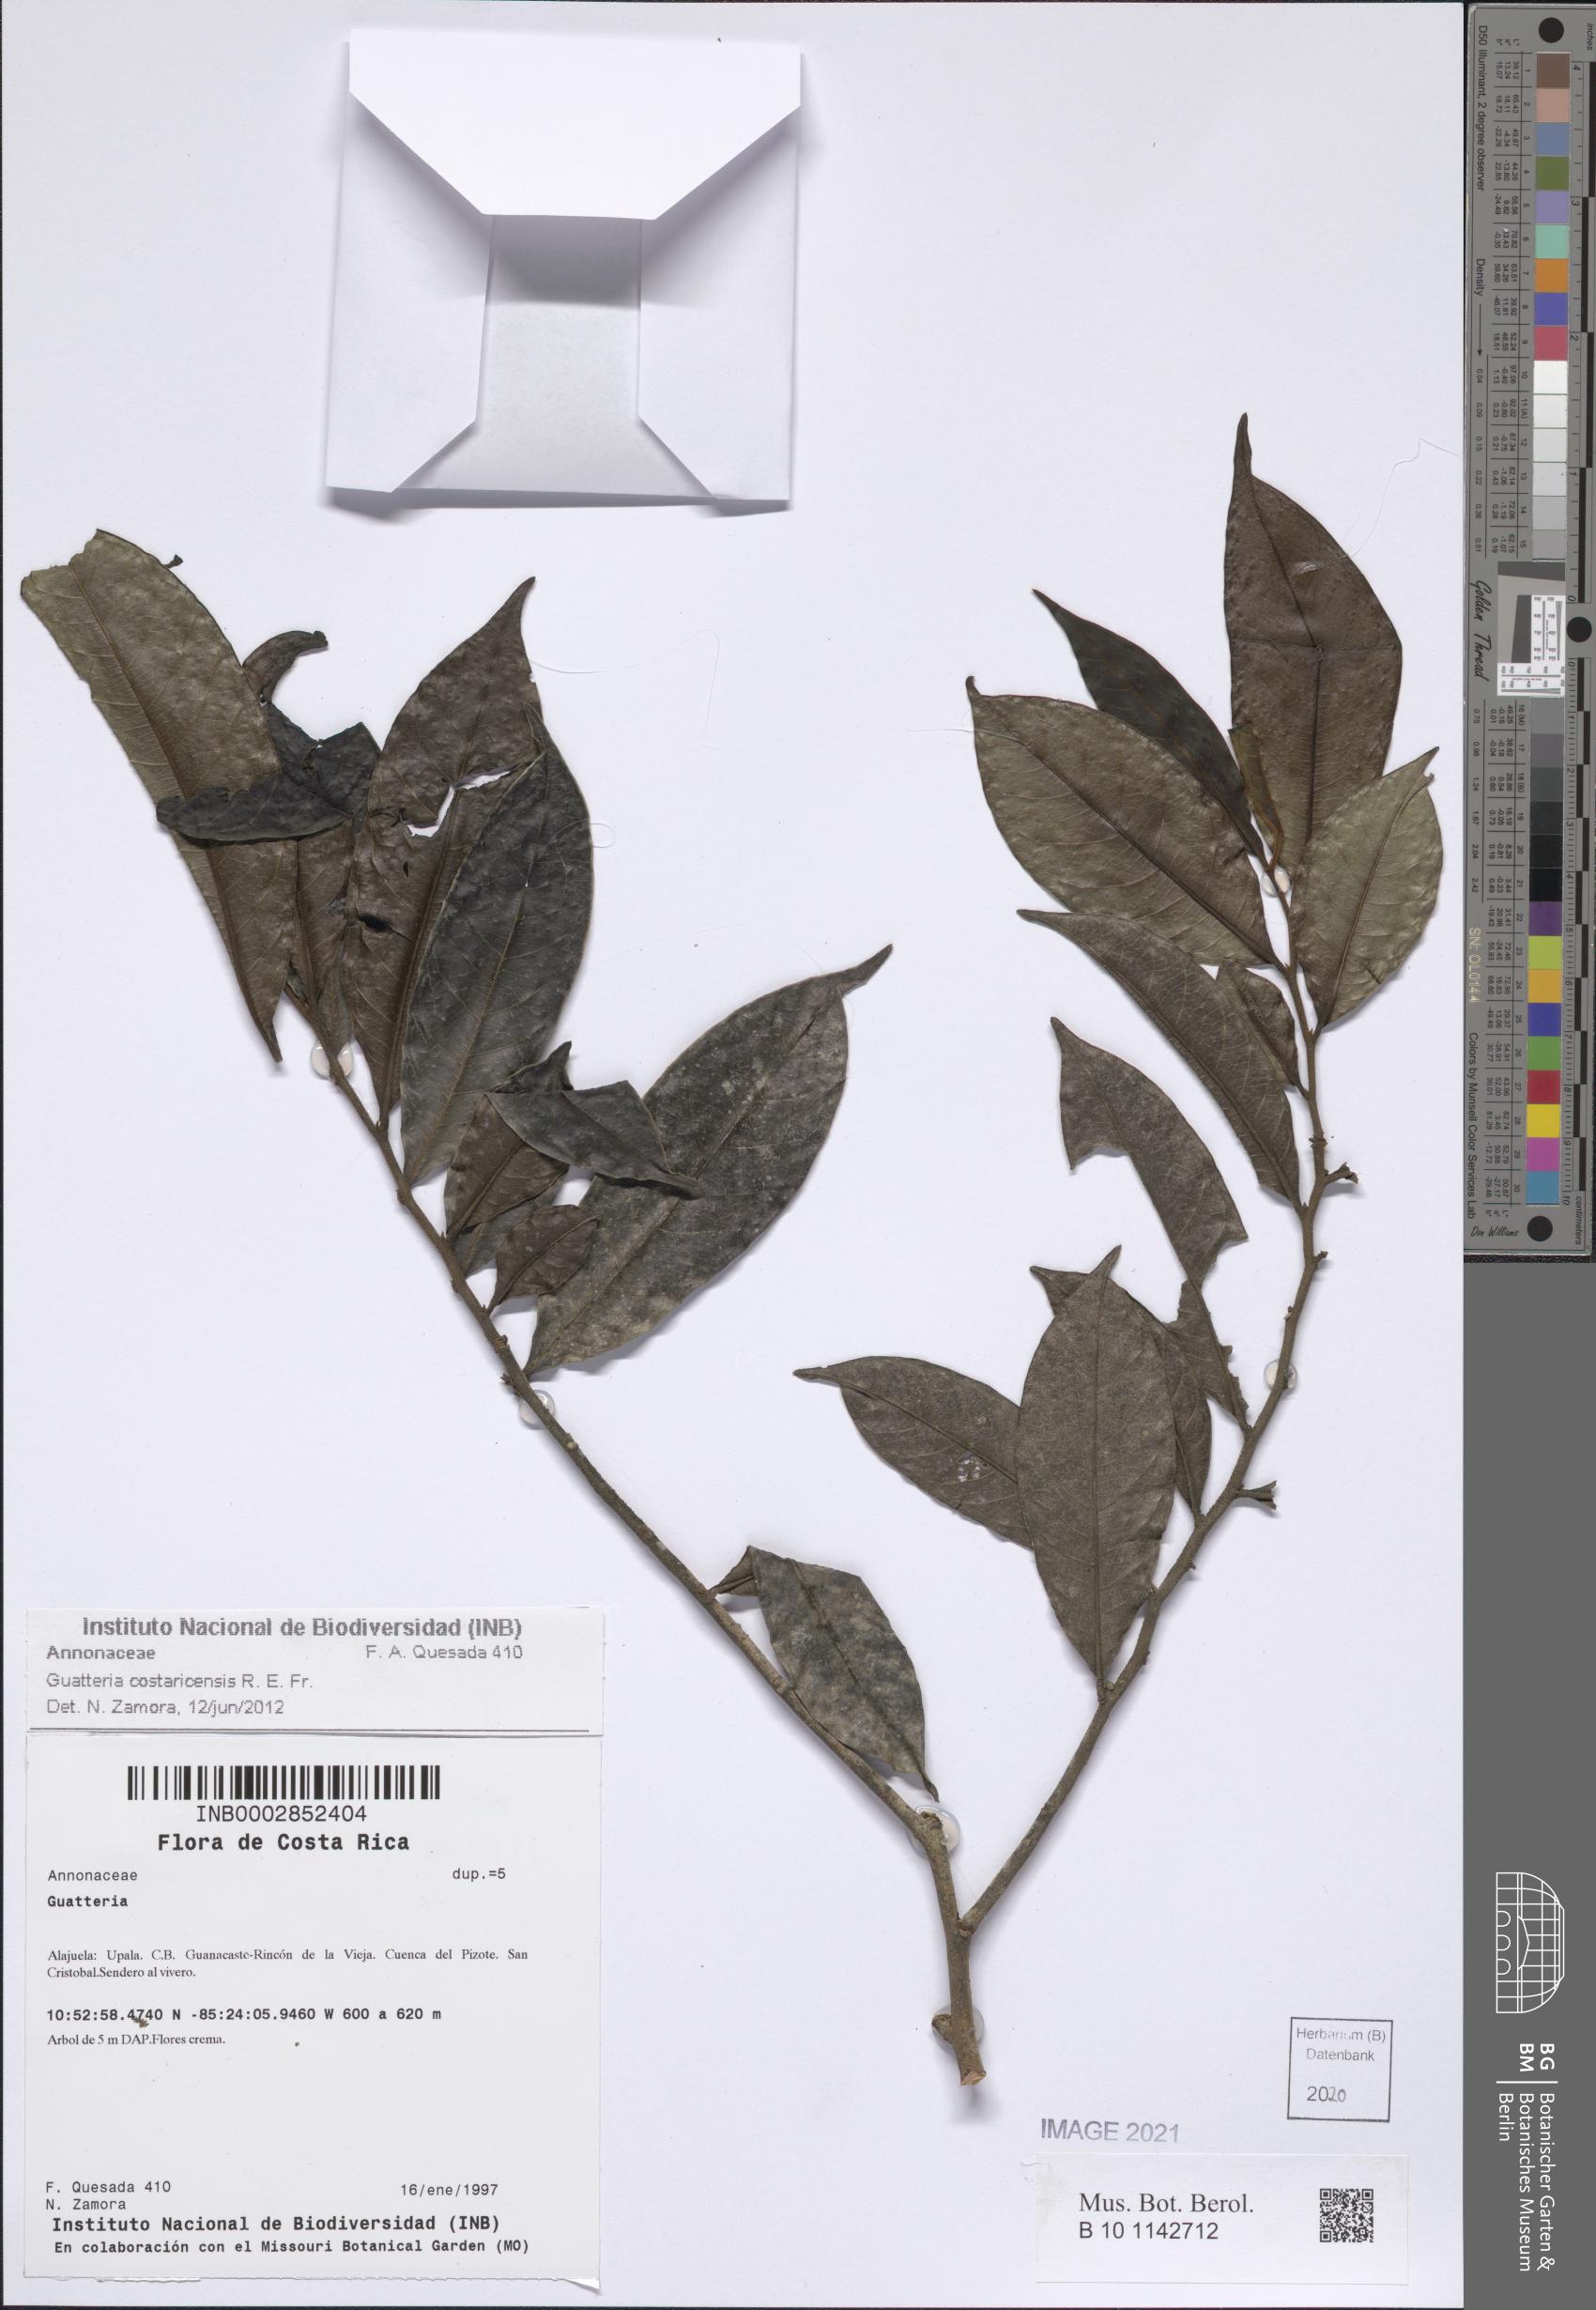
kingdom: Plantae
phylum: Tracheophyta
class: Magnoliopsida
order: Magnoliales
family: Annonaceae
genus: Guatteria
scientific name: Guatteria costaricensis
